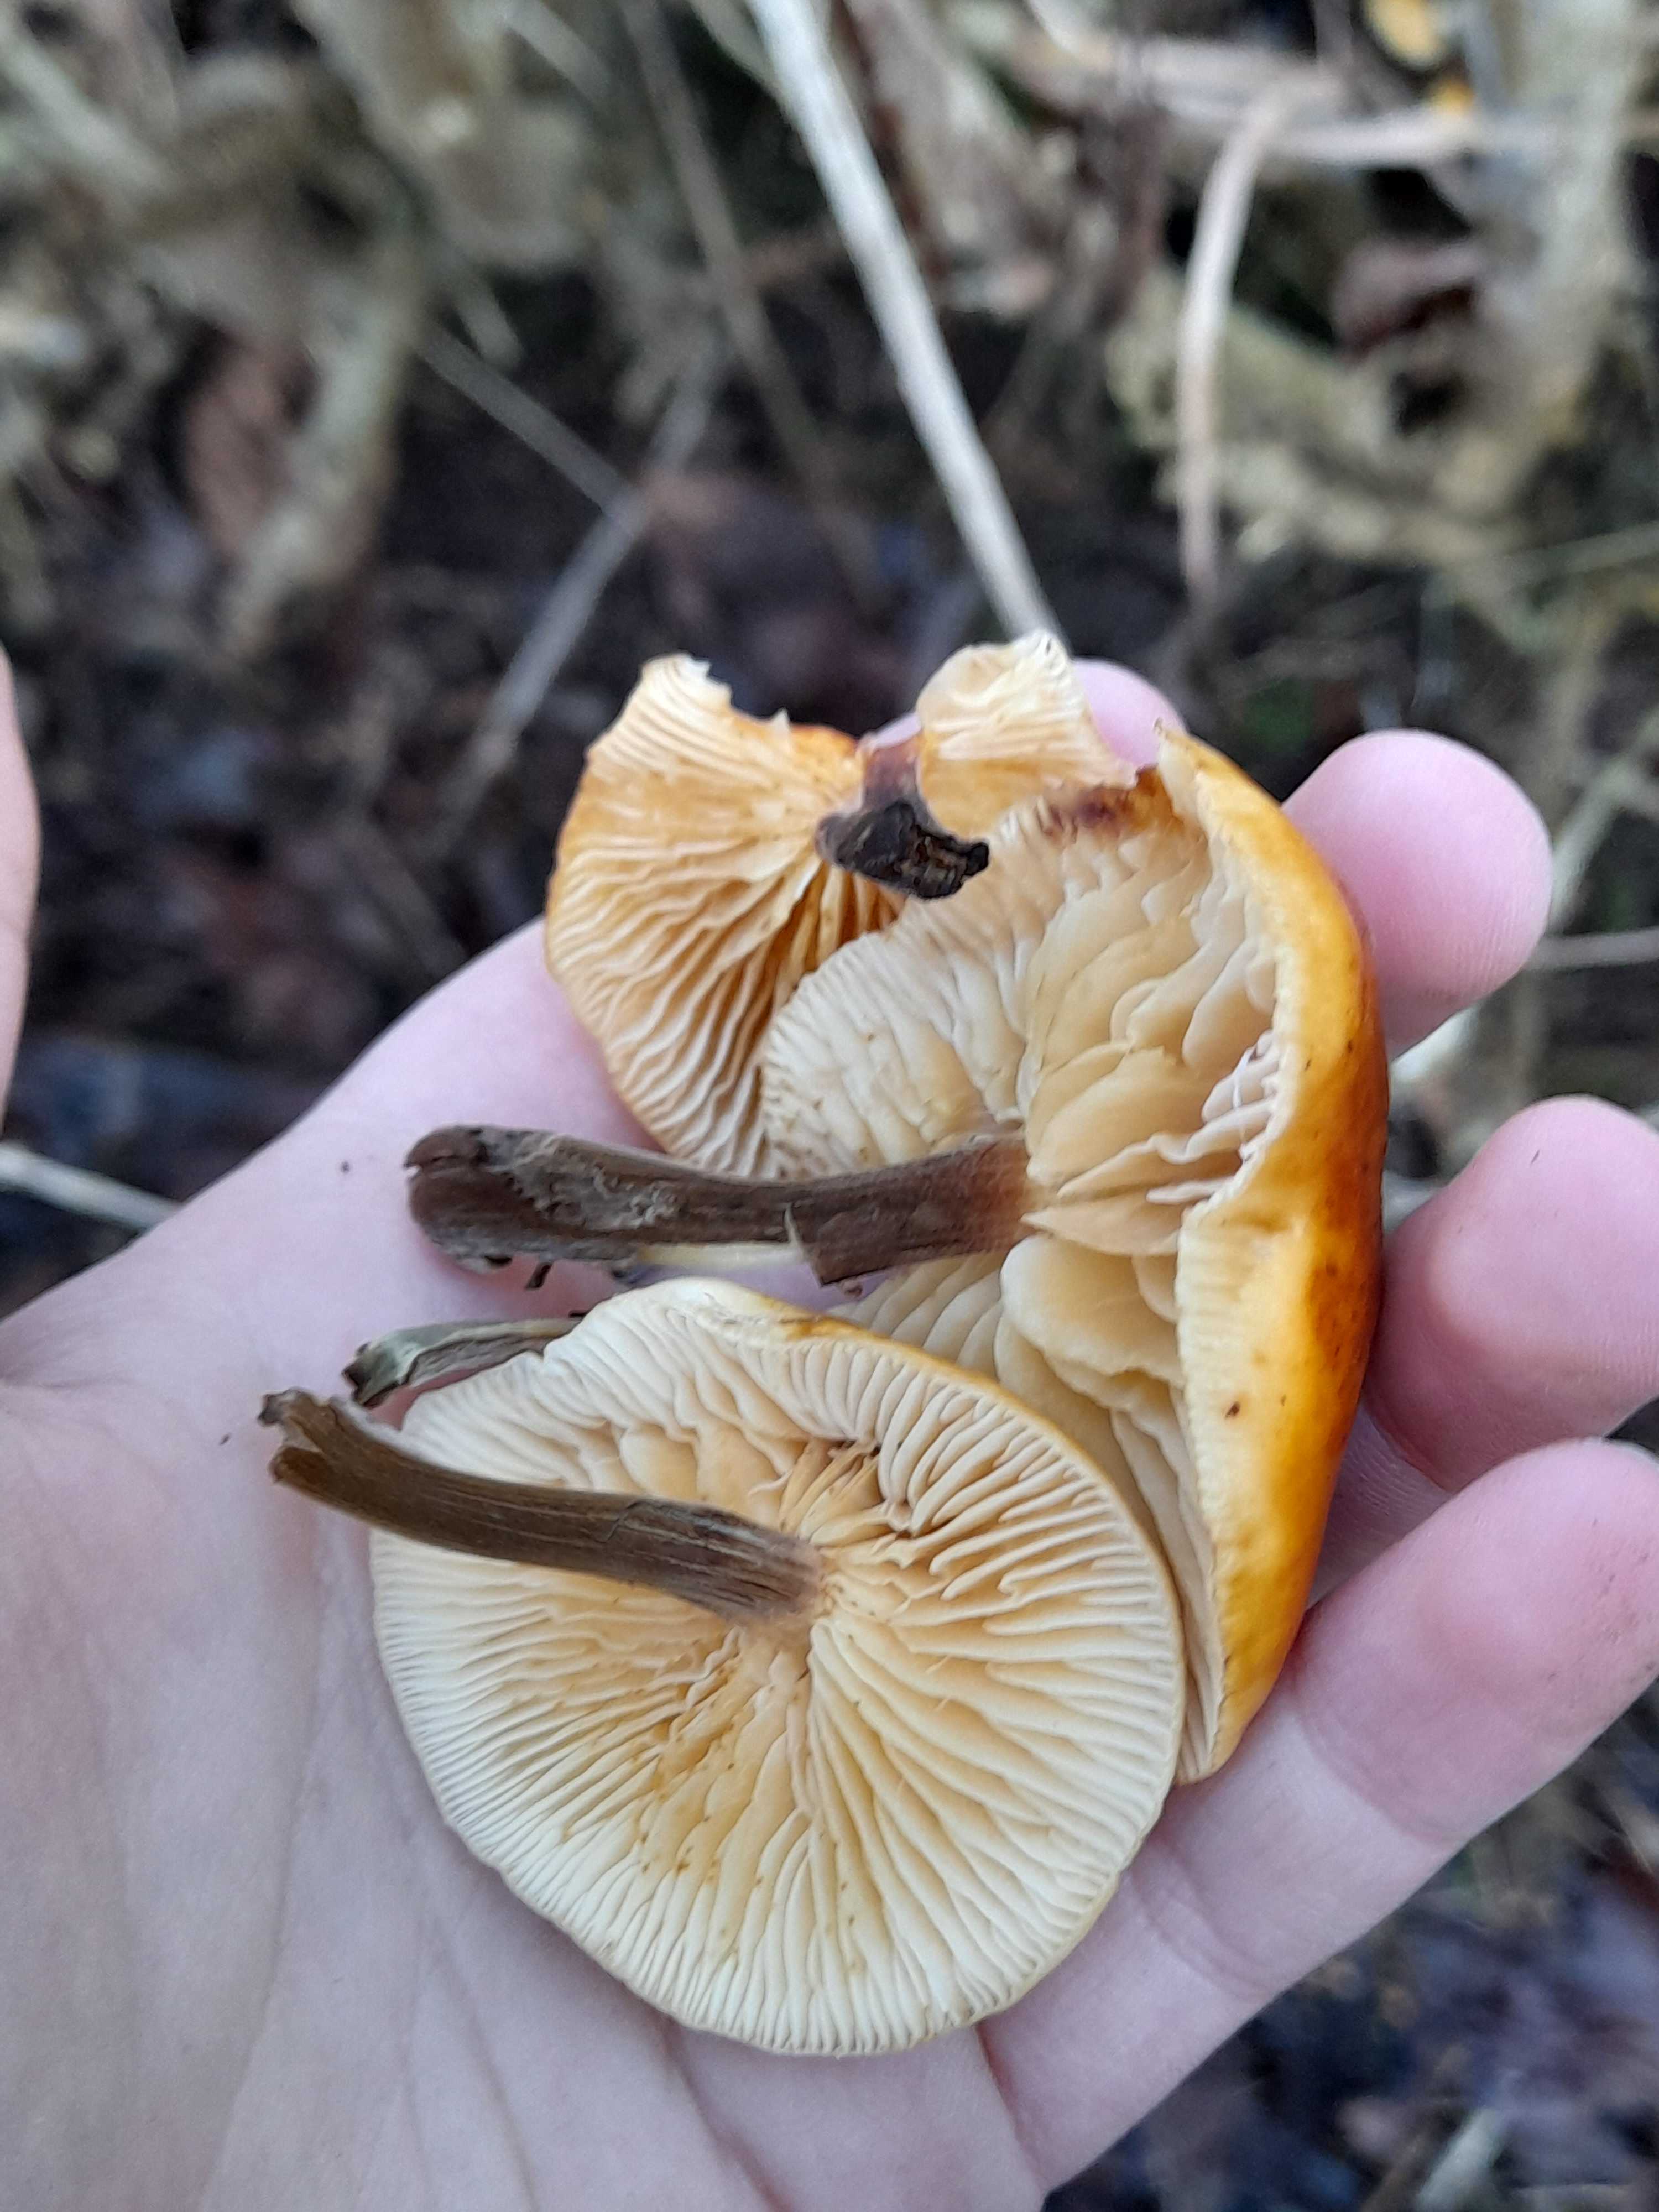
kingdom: Fungi
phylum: Basidiomycota
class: Agaricomycetes
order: Agaricales
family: Physalacriaceae
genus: Flammulina
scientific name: Flammulina
